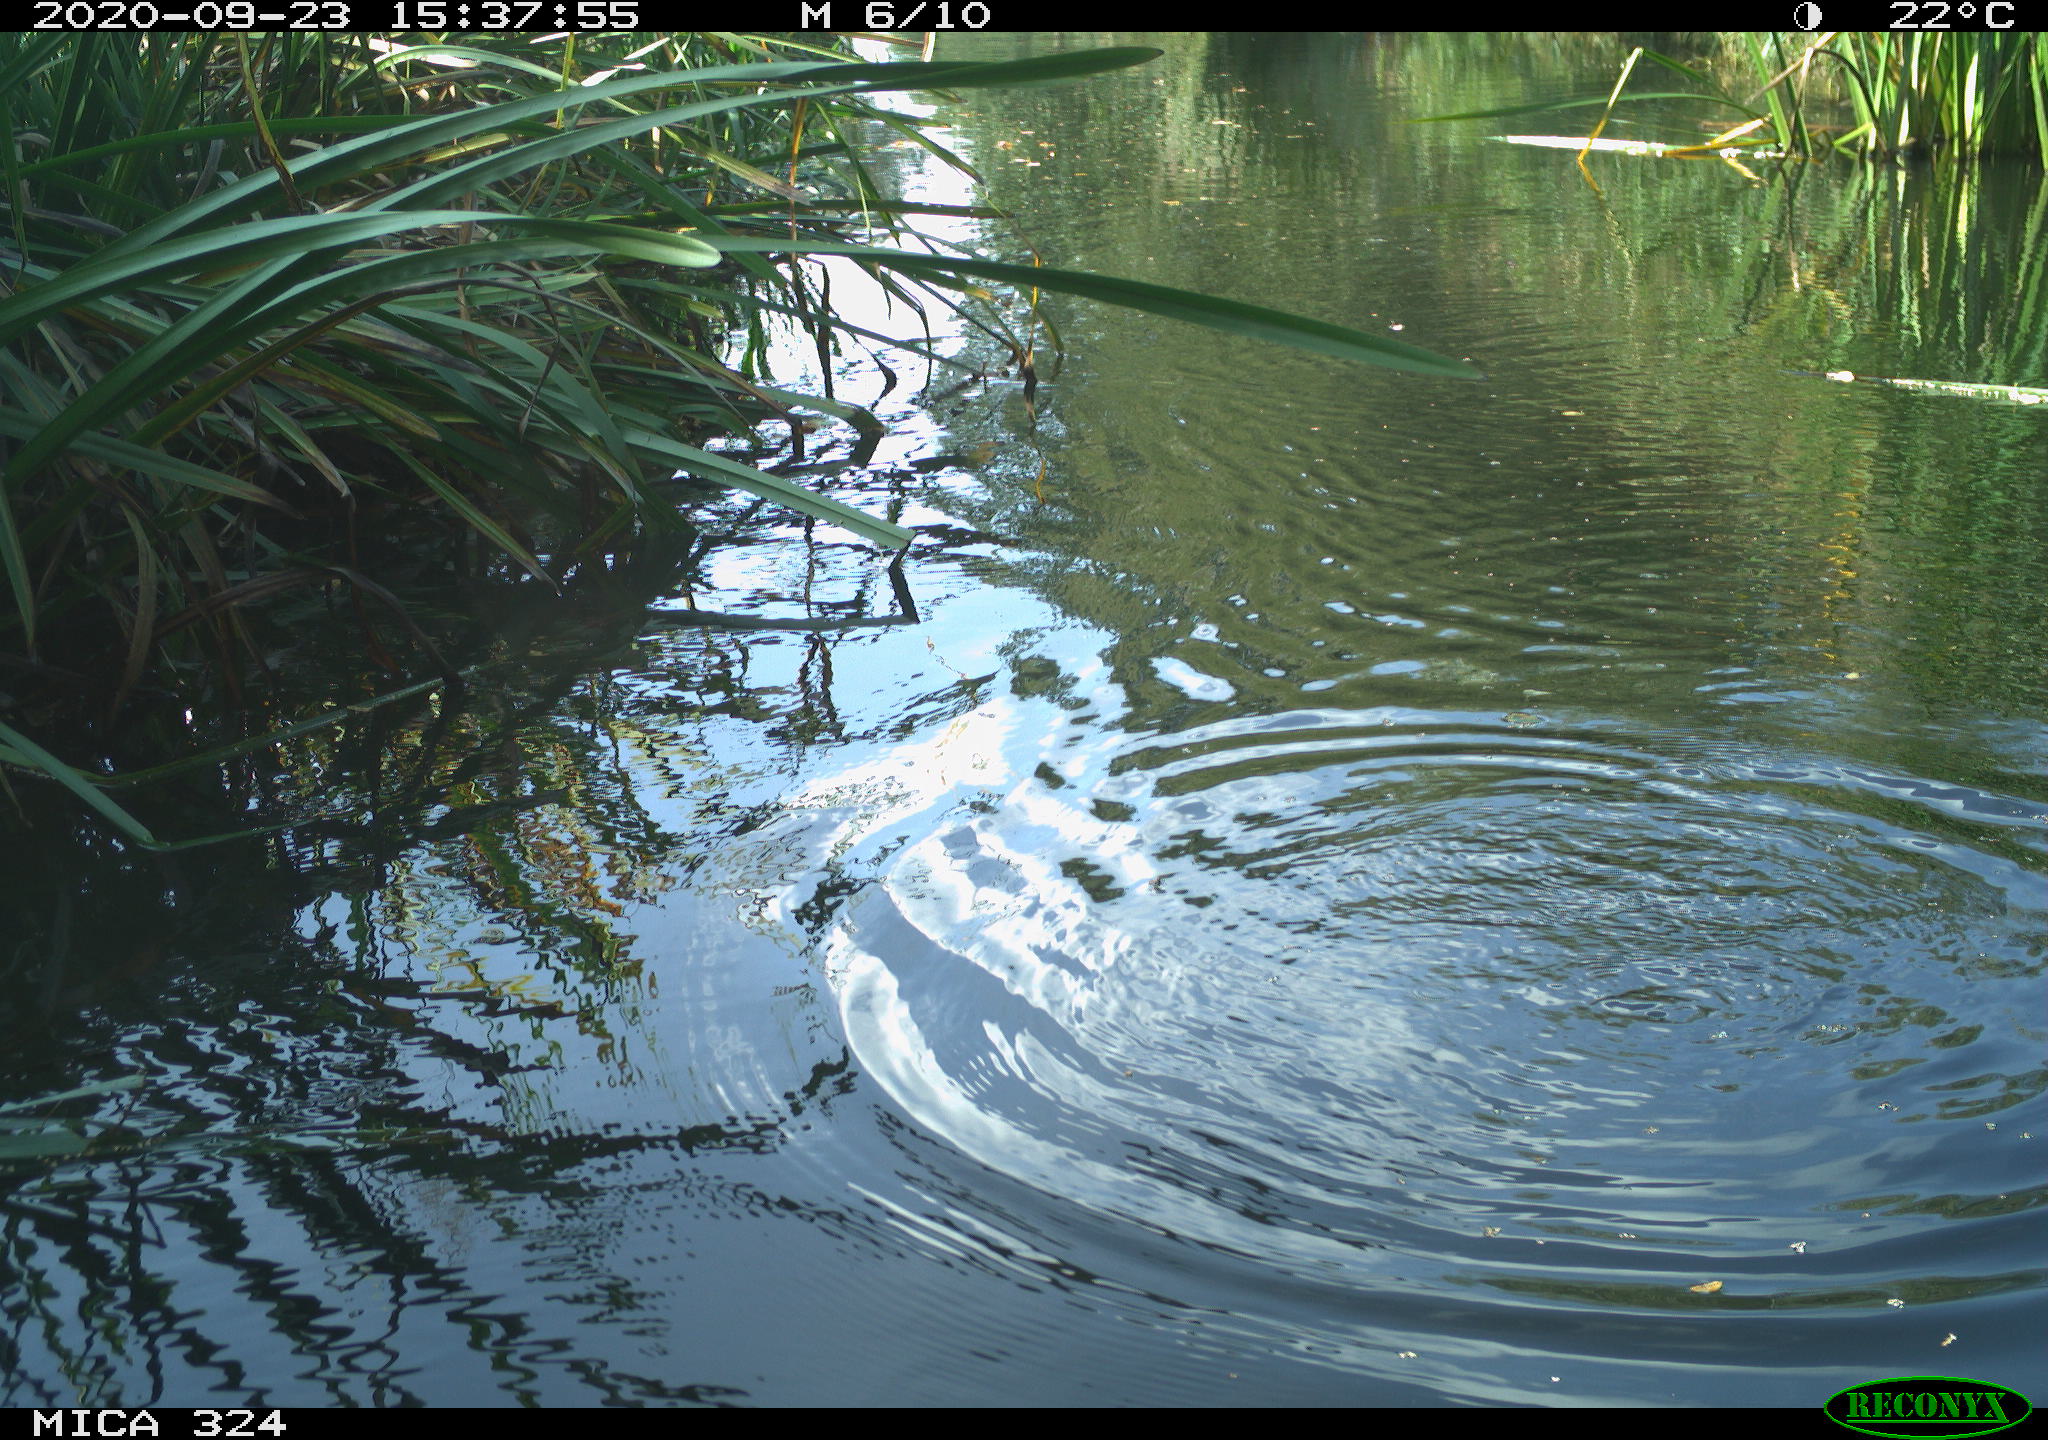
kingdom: Animalia
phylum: Chordata
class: Mammalia
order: Rodentia
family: Cricetidae
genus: Ondatra
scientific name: Ondatra zibethicus
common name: Muskrat
